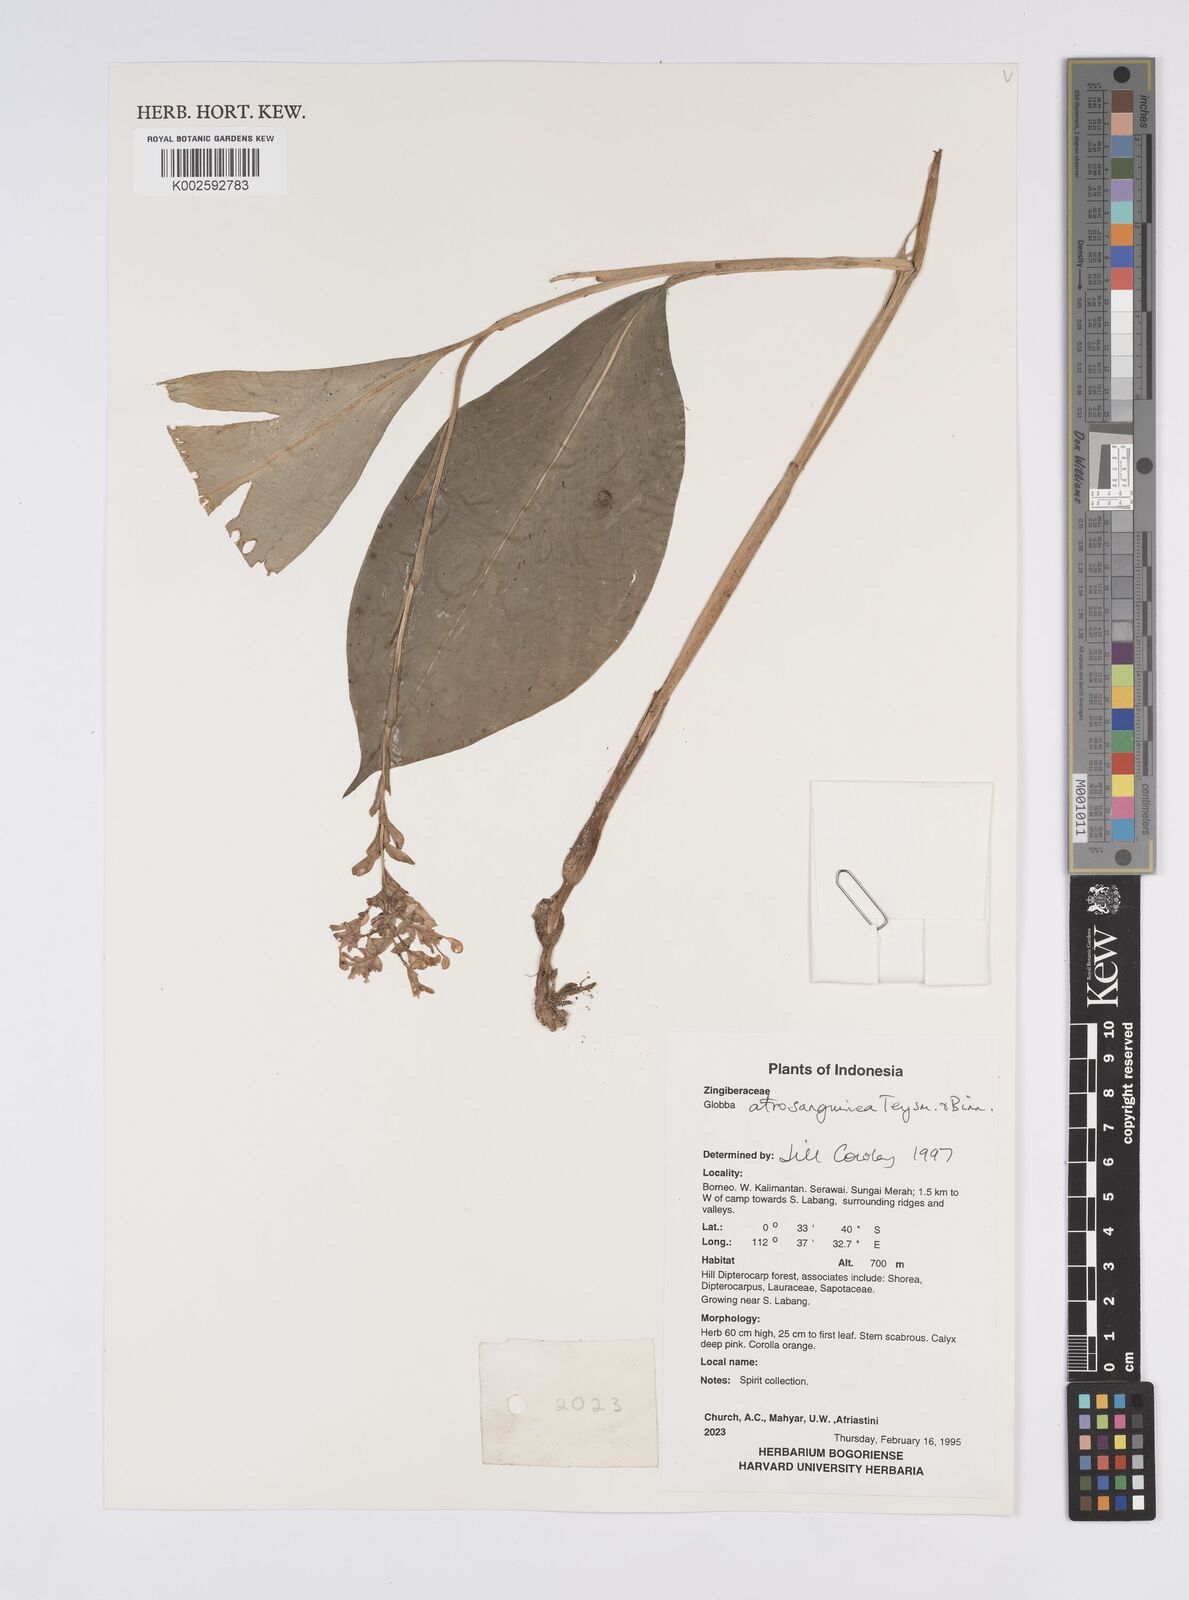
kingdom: Plantae
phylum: Tracheophyta
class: Liliopsida
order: Zingiberales
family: Zingiberaceae
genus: Globba
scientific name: Globba atrosanguinea
